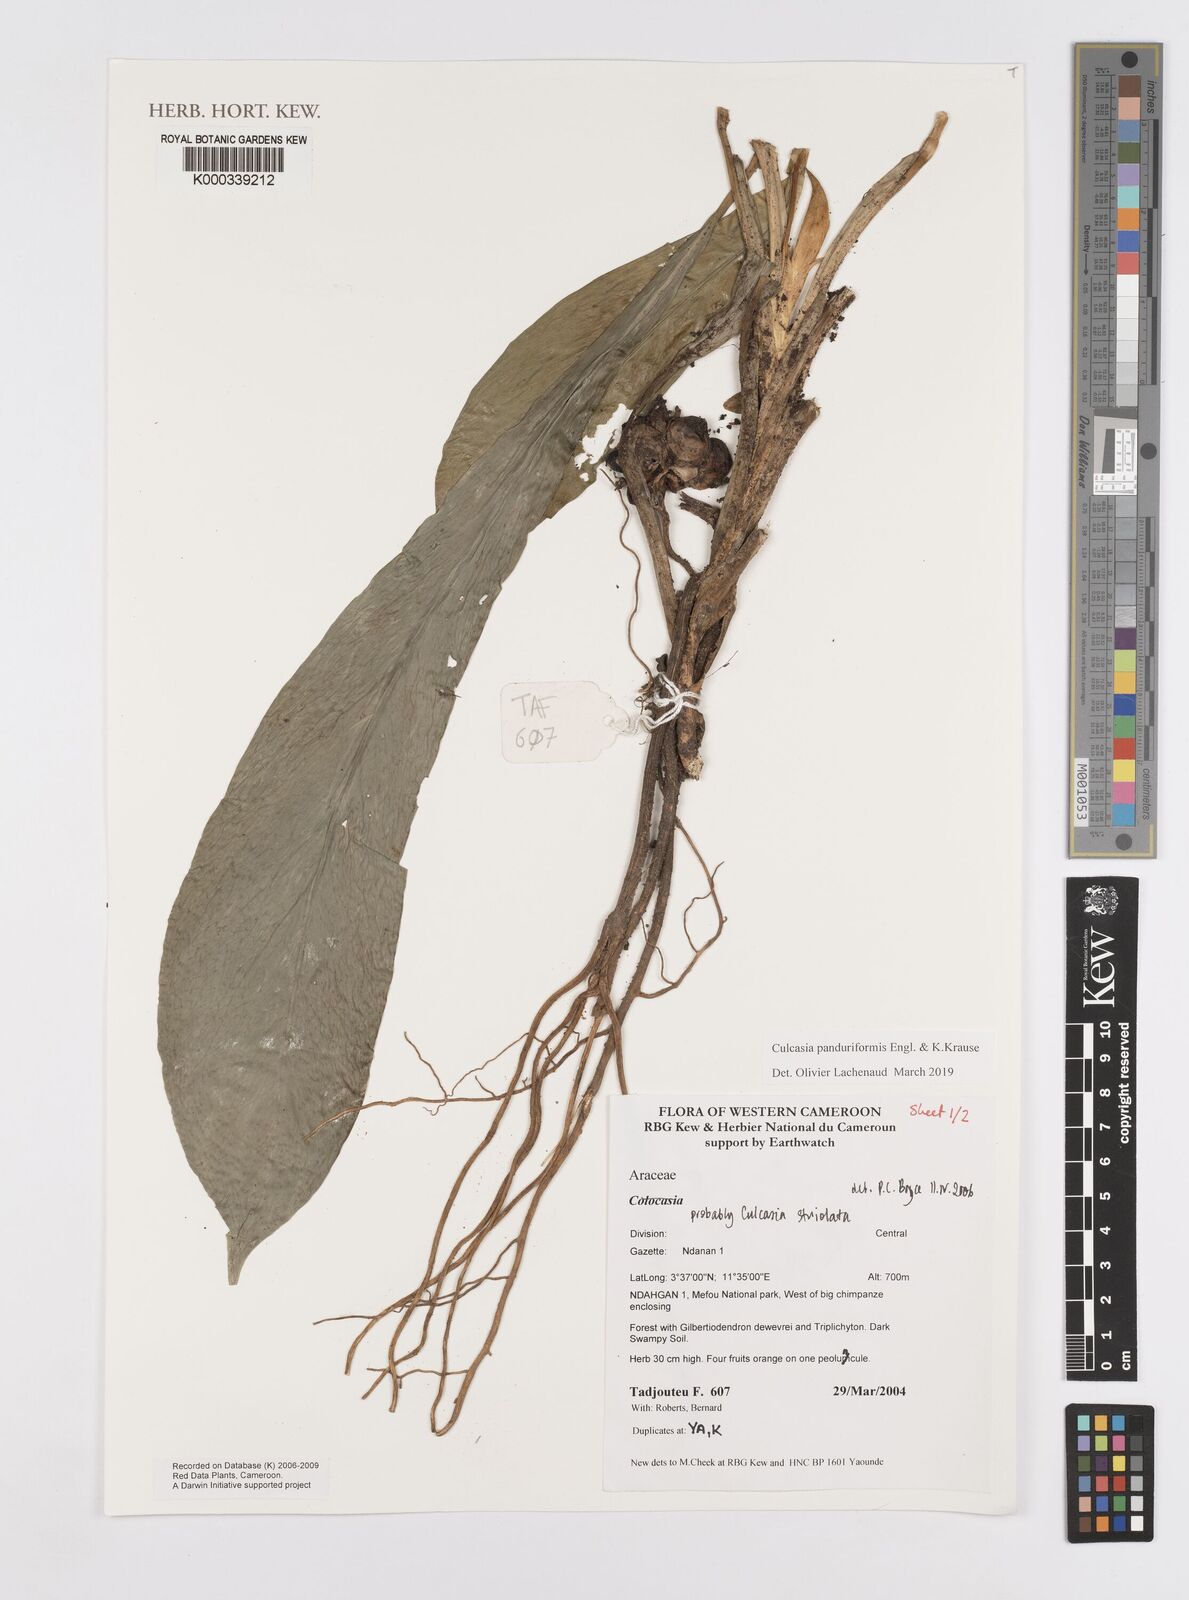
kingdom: Plantae
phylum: Tracheophyta
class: Liliopsida
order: Alismatales
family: Araceae
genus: Culcasia
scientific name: Culcasia panduriformis
